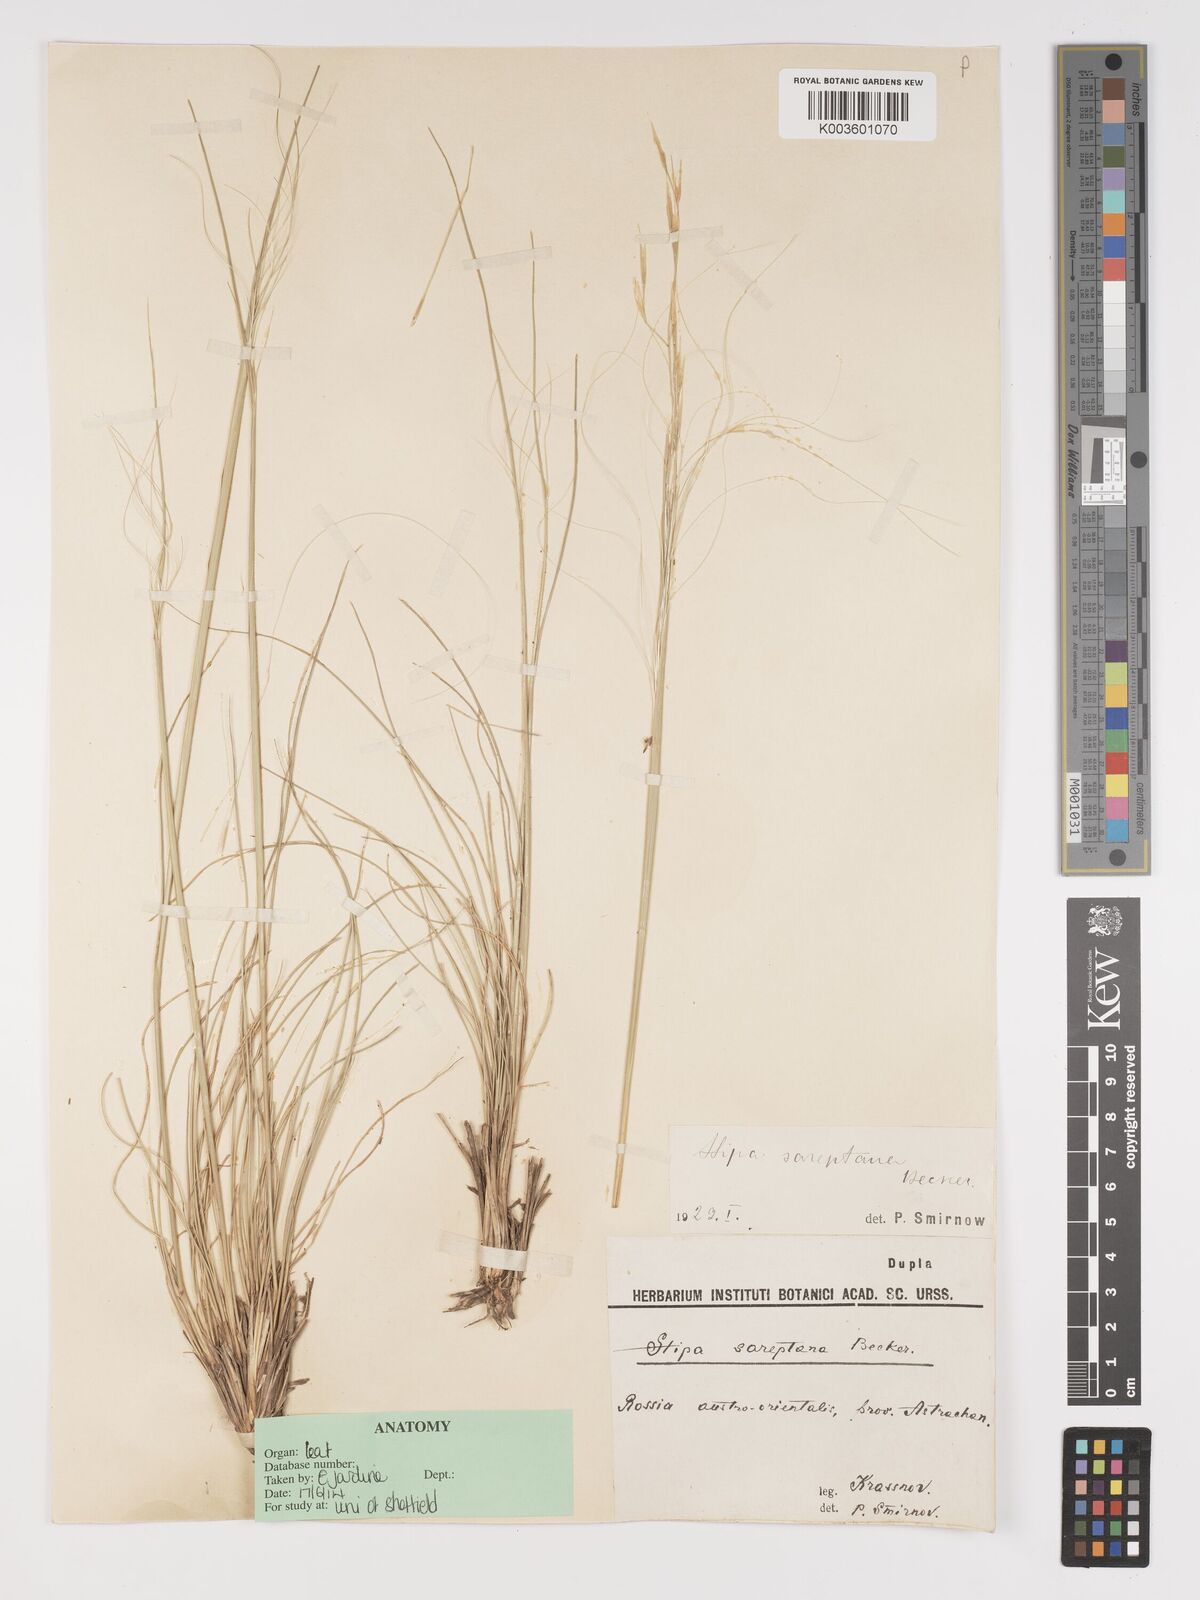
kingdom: Plantae
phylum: Tracheophyta
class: Liliopsida
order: Poales
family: Poaceae
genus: Stipa
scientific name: Stipa sareptana
